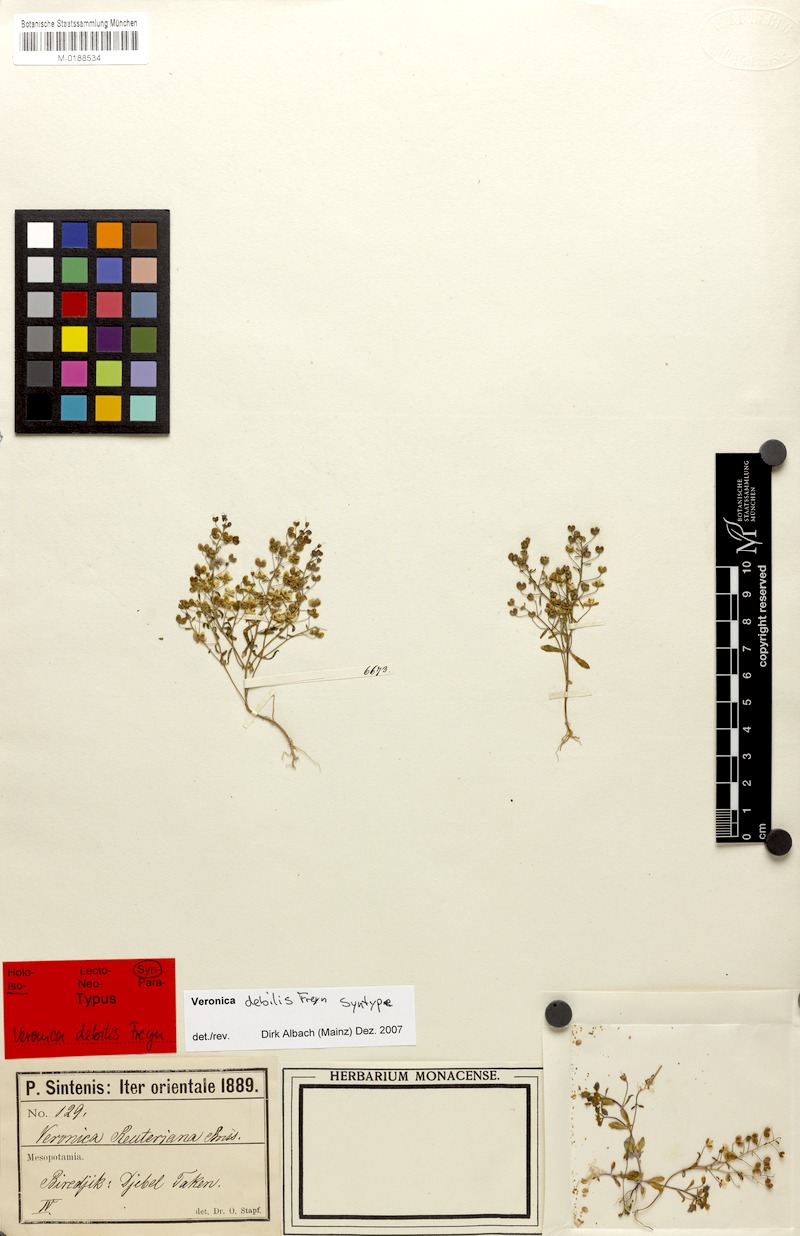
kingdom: Plantae
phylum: Tracheophyta
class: Magnoliopsida
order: Lamiales
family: Plantaginaceae
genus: Veronica
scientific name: Veronica debilis
